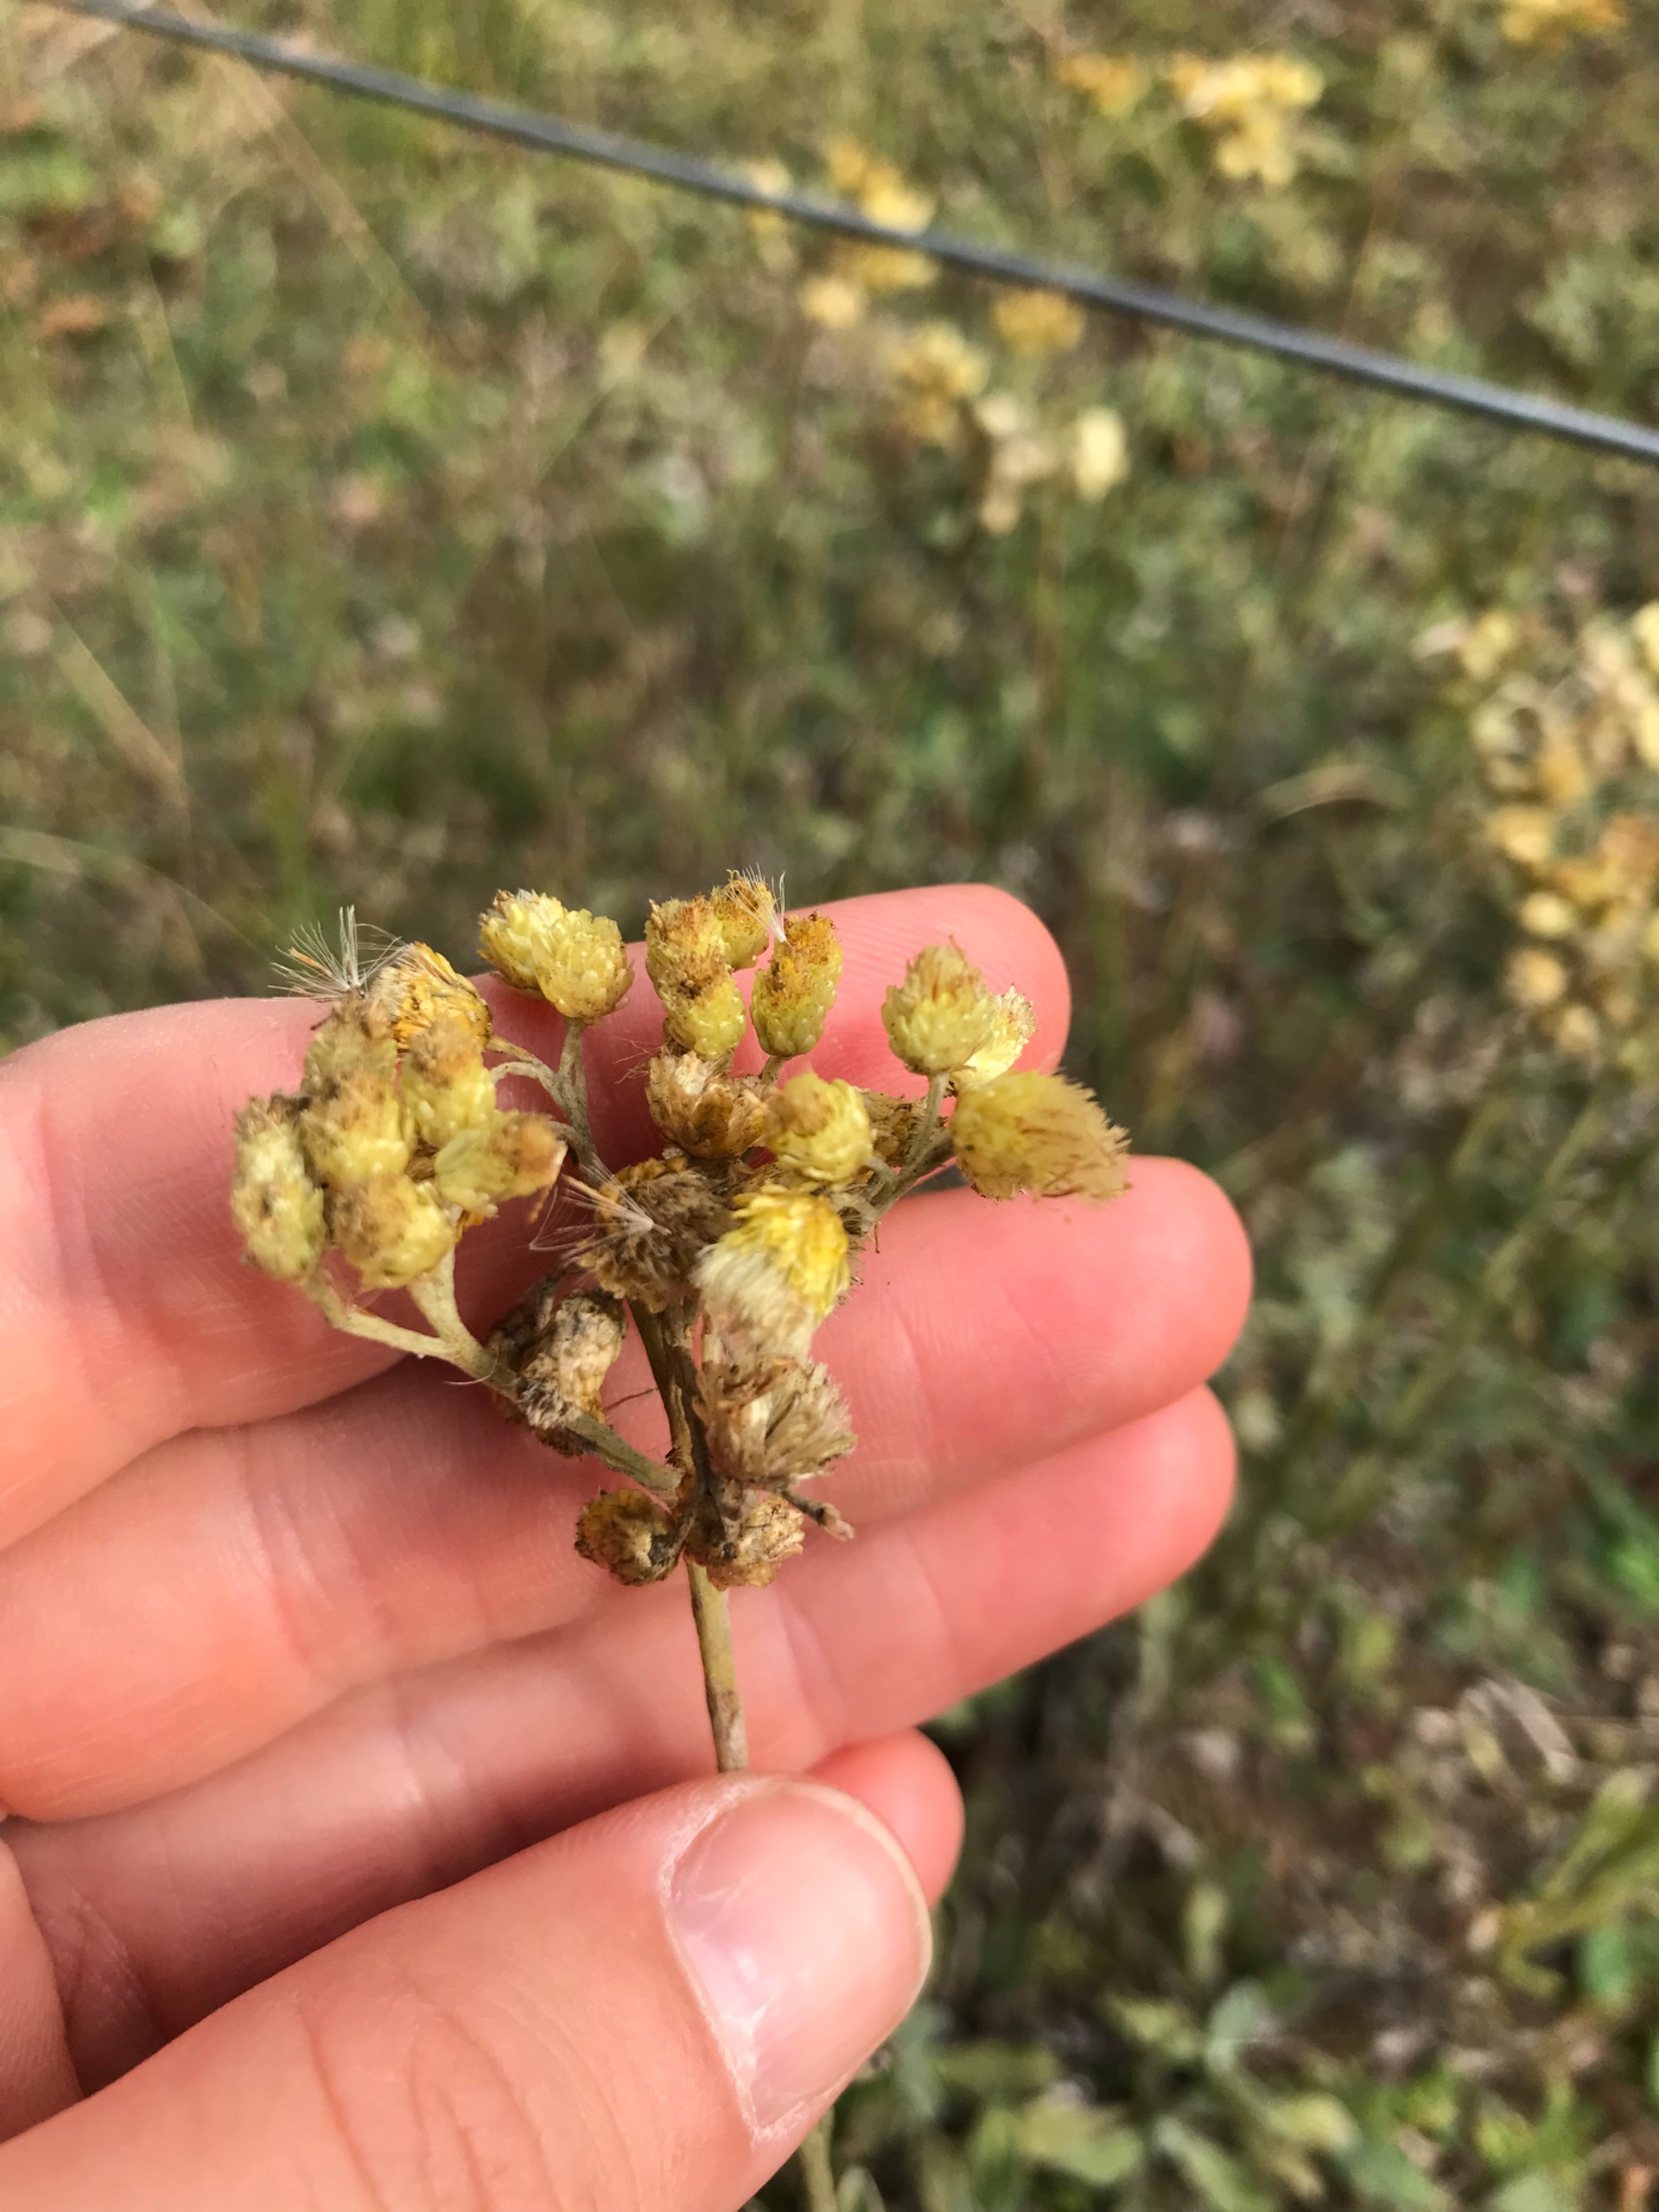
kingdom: Plantae
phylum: Tracheophyta
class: Magnoliopsida
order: Asterales
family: Asteraceae
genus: Helichrysum
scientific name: Helichrysum arenarium
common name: Gul evighedsblomst
